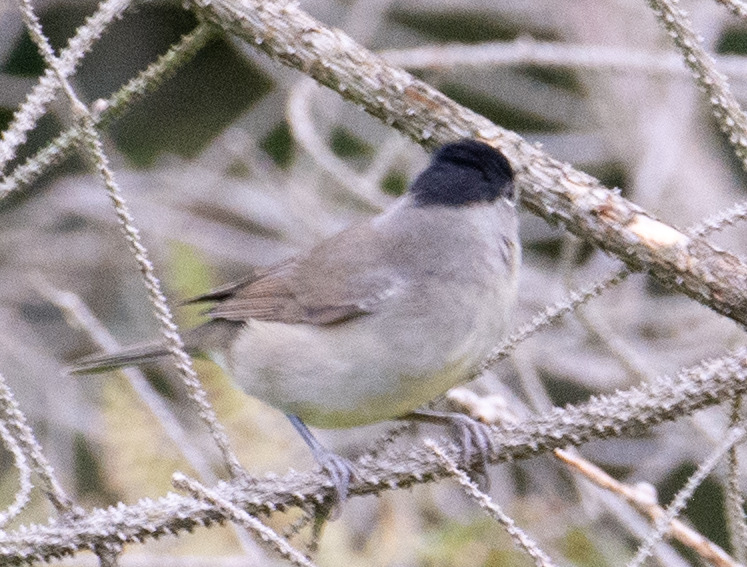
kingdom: Animalia
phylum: Chordata
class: Aves
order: Passeriformes
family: Sylviidae
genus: Sylvia
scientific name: Sylvia atricapilla
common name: Munk
